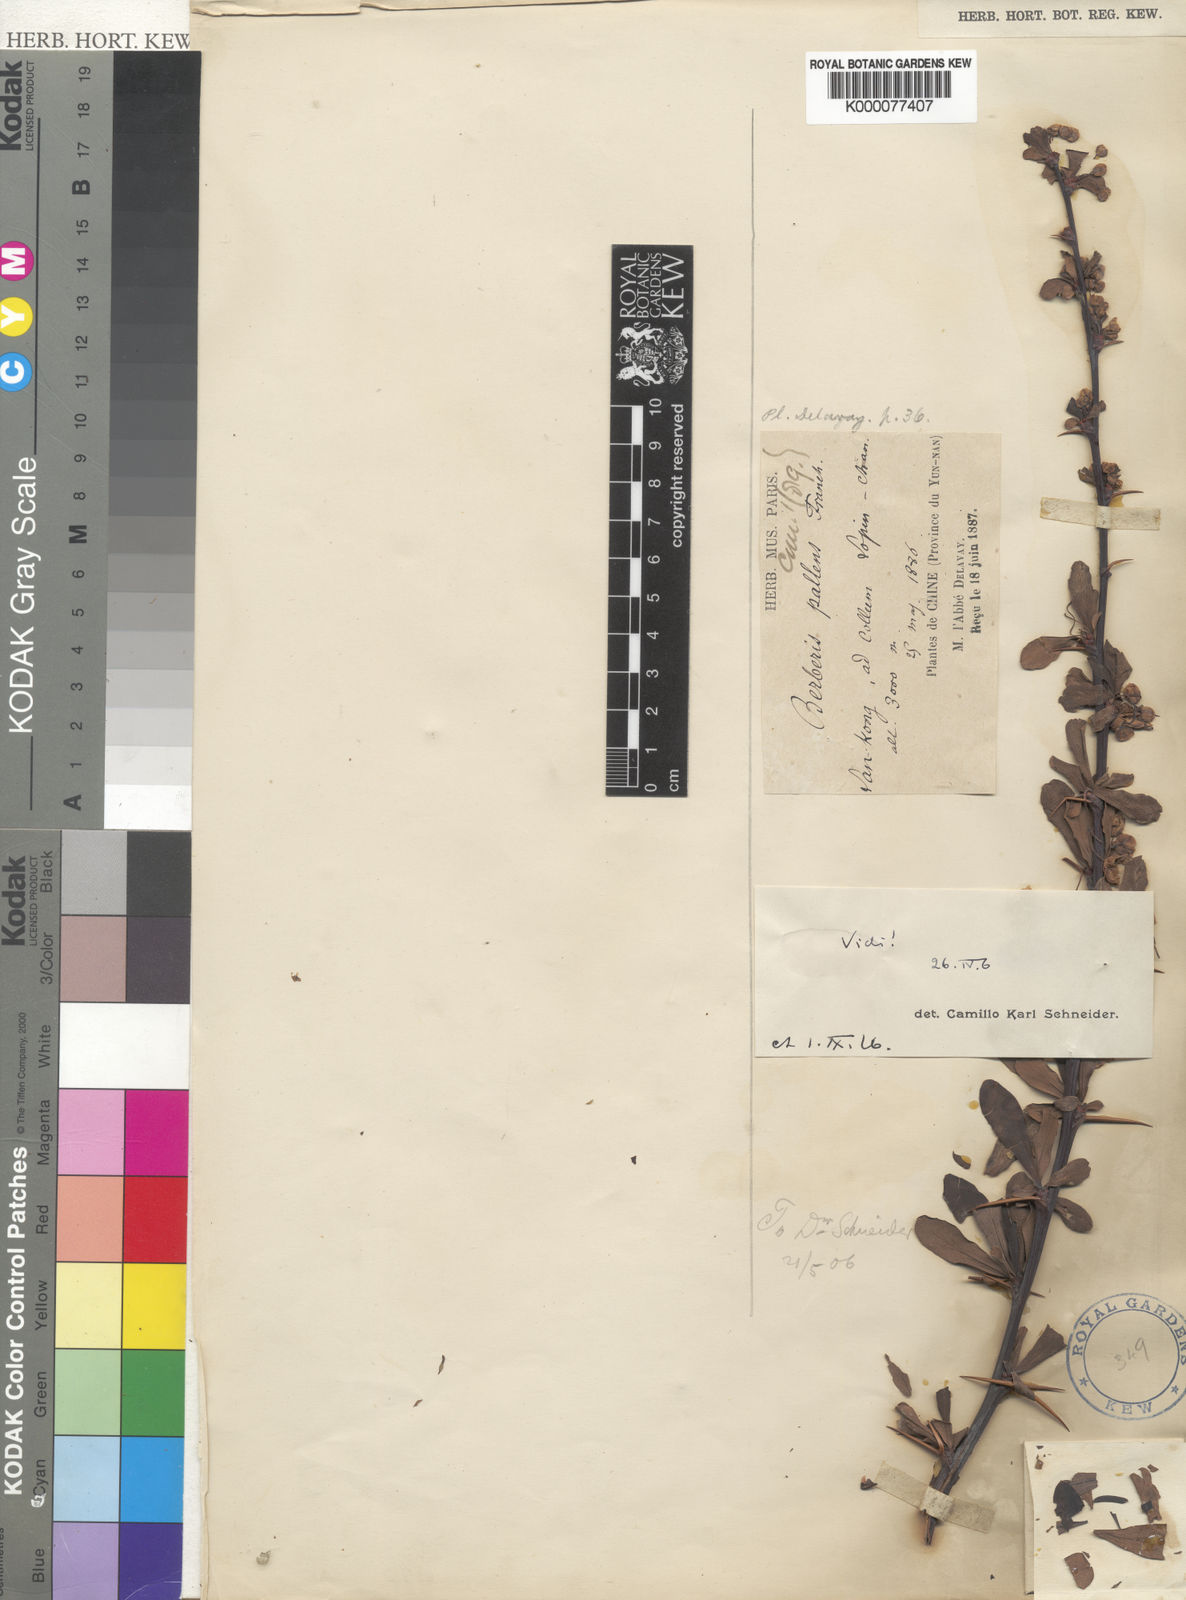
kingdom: Plantae
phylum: Tracheophyta
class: Magnoliopsida
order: Ranunculales
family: Berberidaceae
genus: Berberis
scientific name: Berberis pallens
